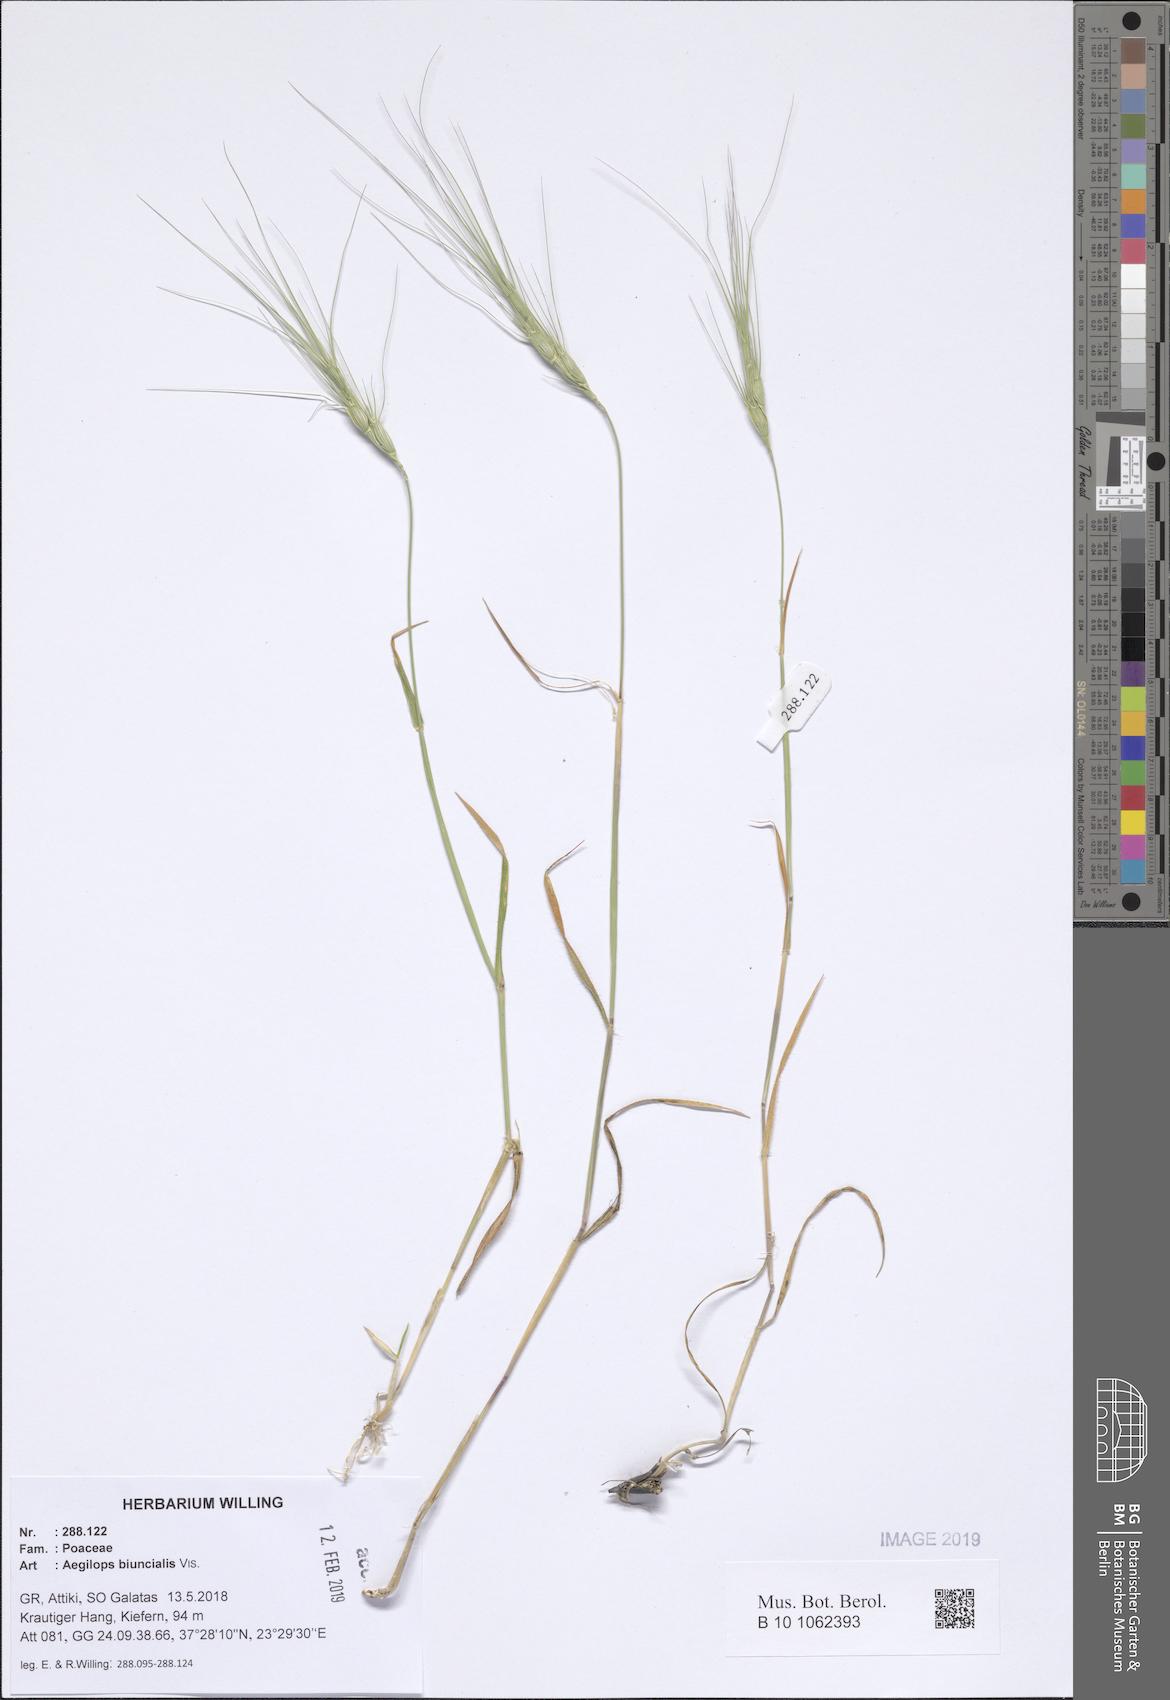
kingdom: Plantae
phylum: Tracheophyta
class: Liliopsida
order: Poales
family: Poaceae
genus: Aegilops
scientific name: Aegilops biuncialis
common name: Mediterranean aegilops
